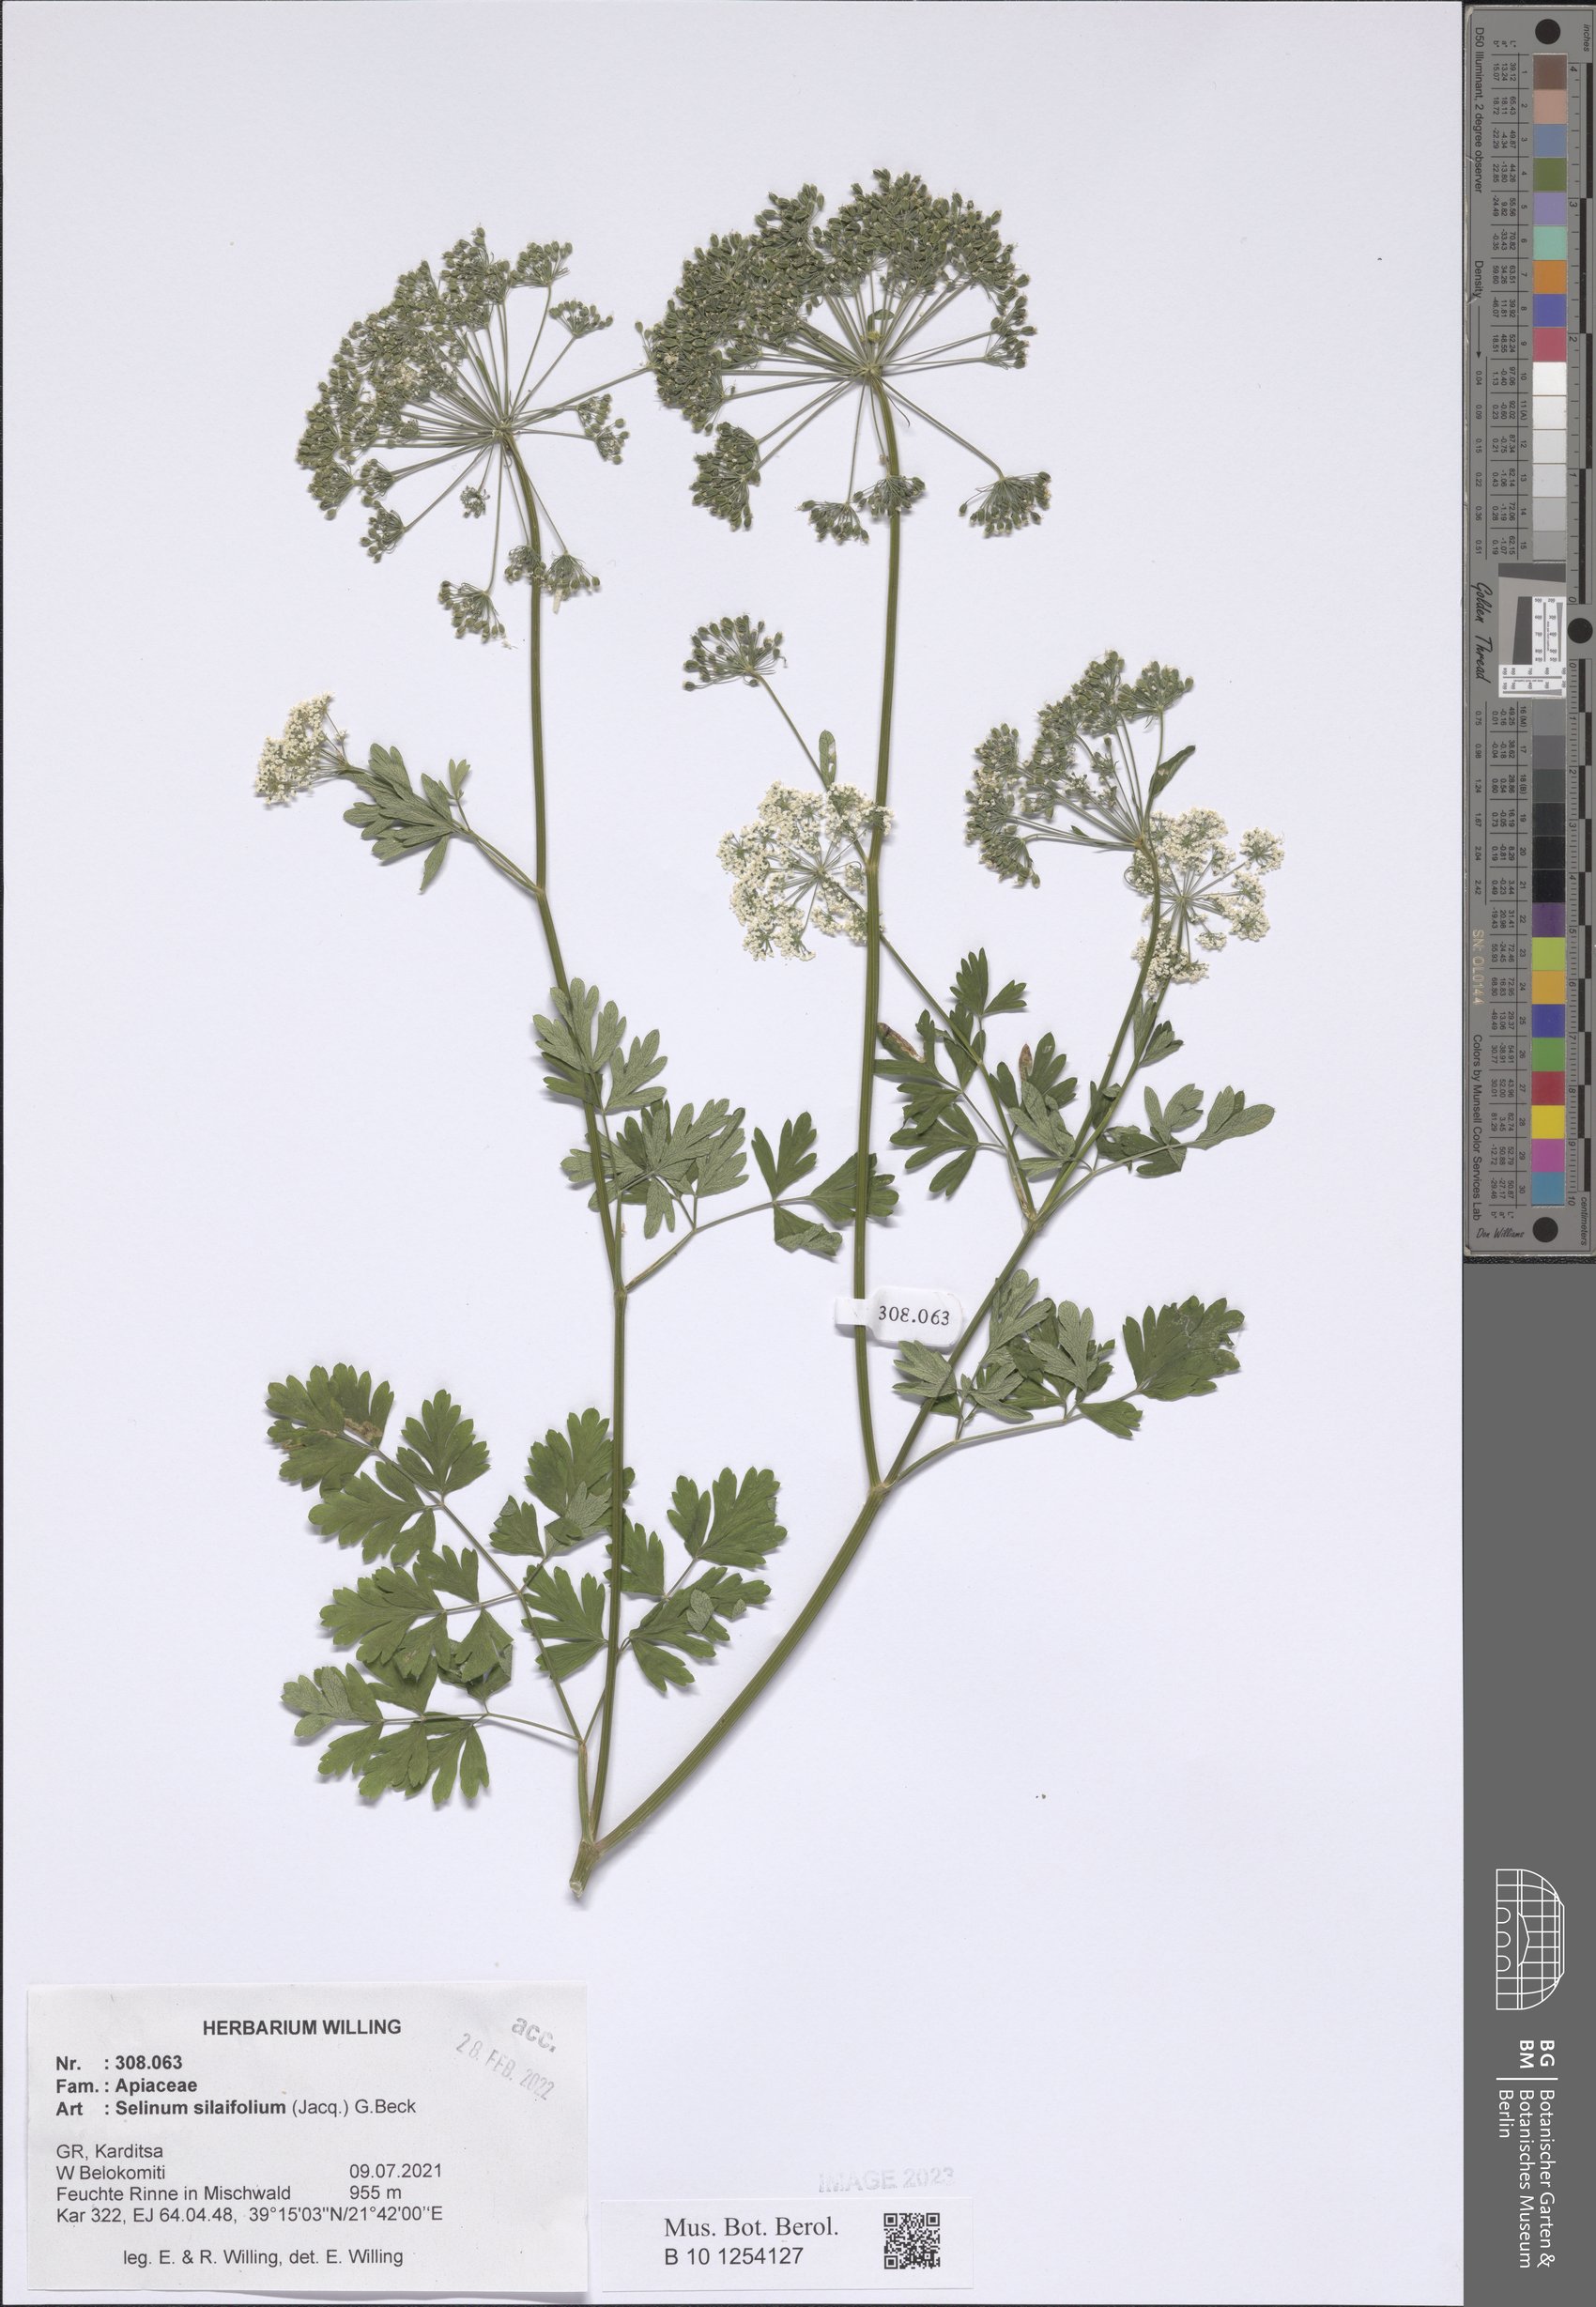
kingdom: Plantae
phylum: Tracheophyta
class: Magnoliopsida
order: Apiales
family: Apiaceae
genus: Katapsuxis
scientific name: Katapsuxis silaifolia
